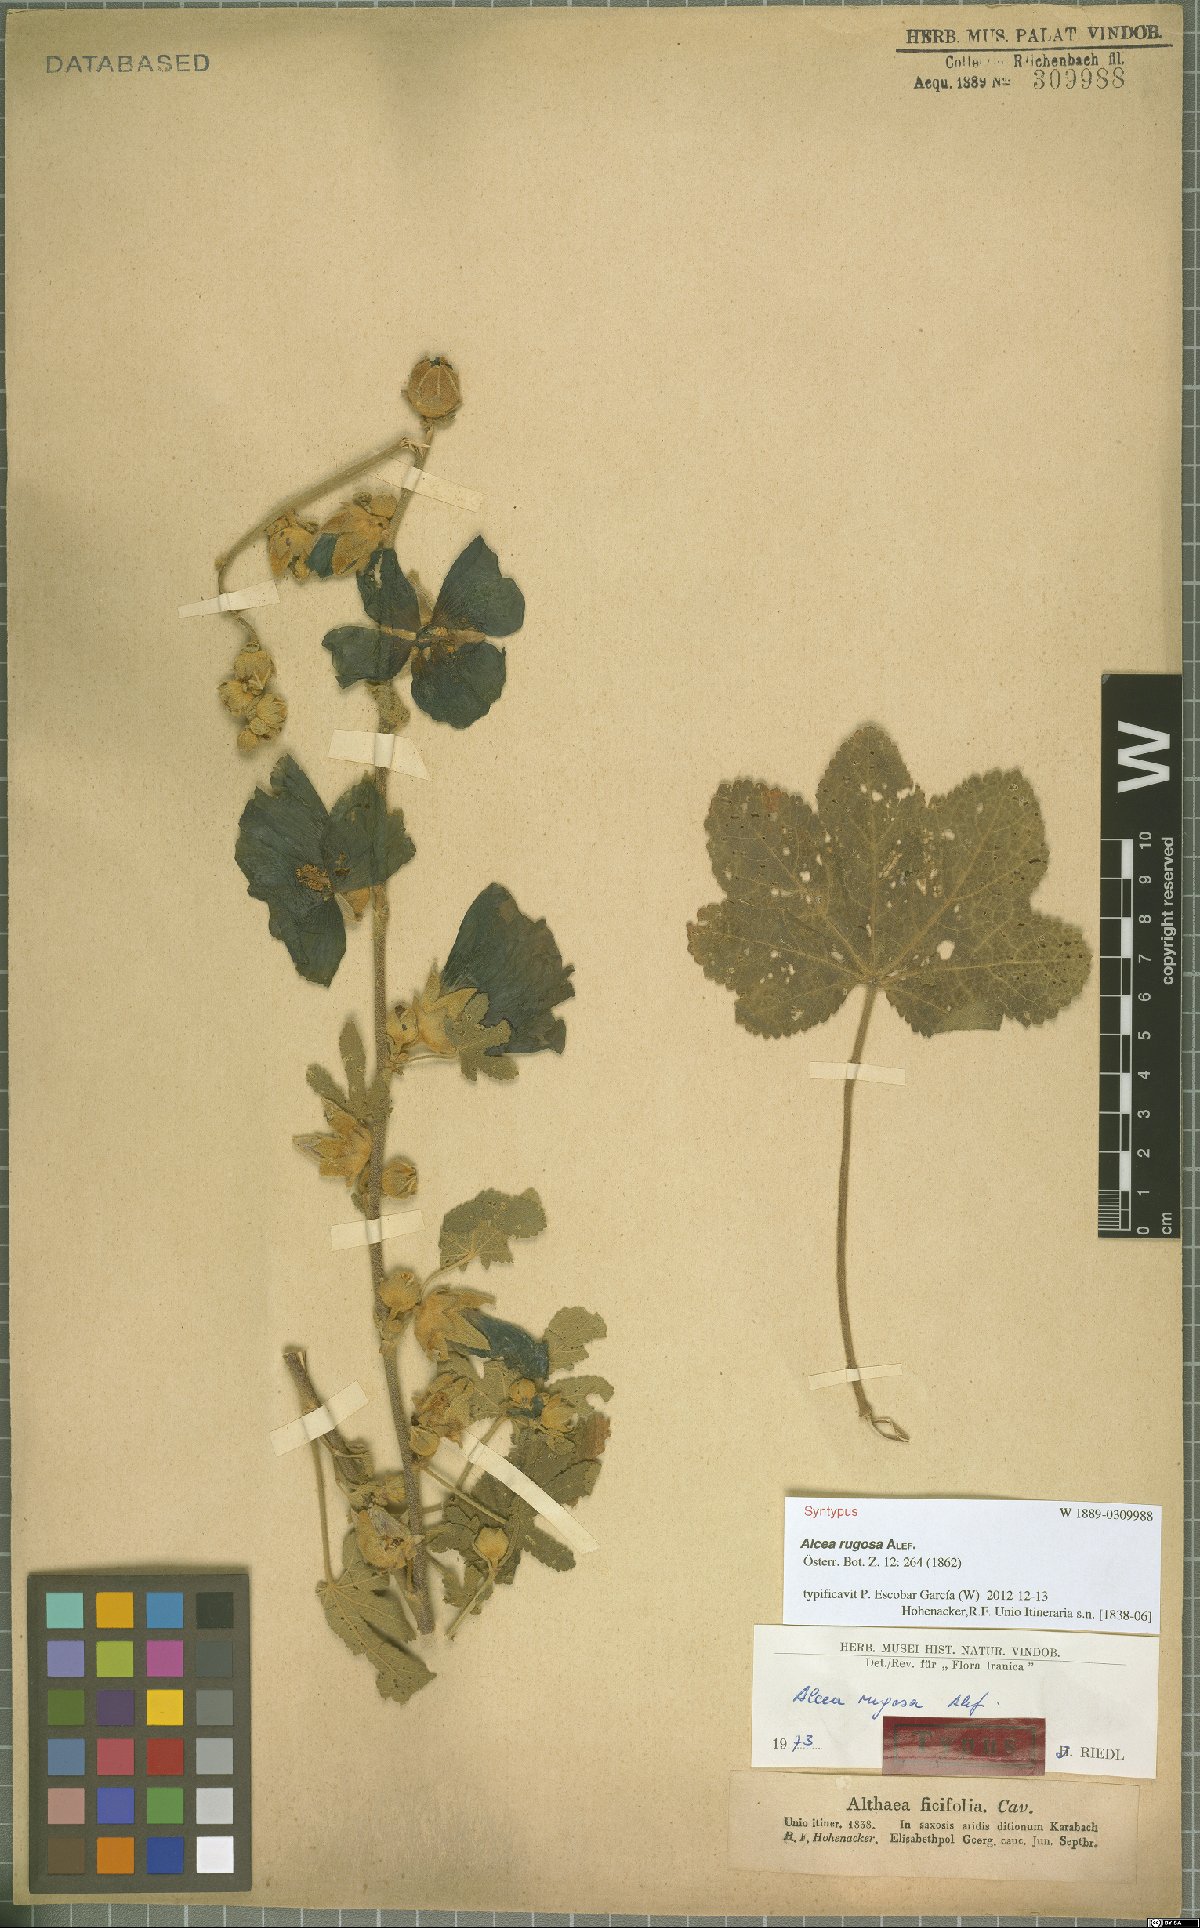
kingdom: Plantae
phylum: Tracheophyta
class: Magnoliopsida
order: Malvales
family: Malvaceae
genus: Alcea
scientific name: Alcea rugosa
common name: Russian hollyhock
